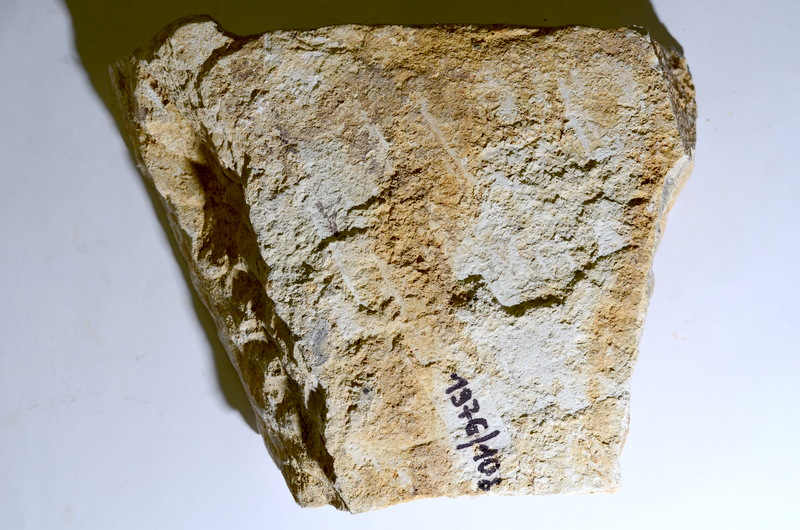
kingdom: Animalia
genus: Piscis
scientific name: Piscis
